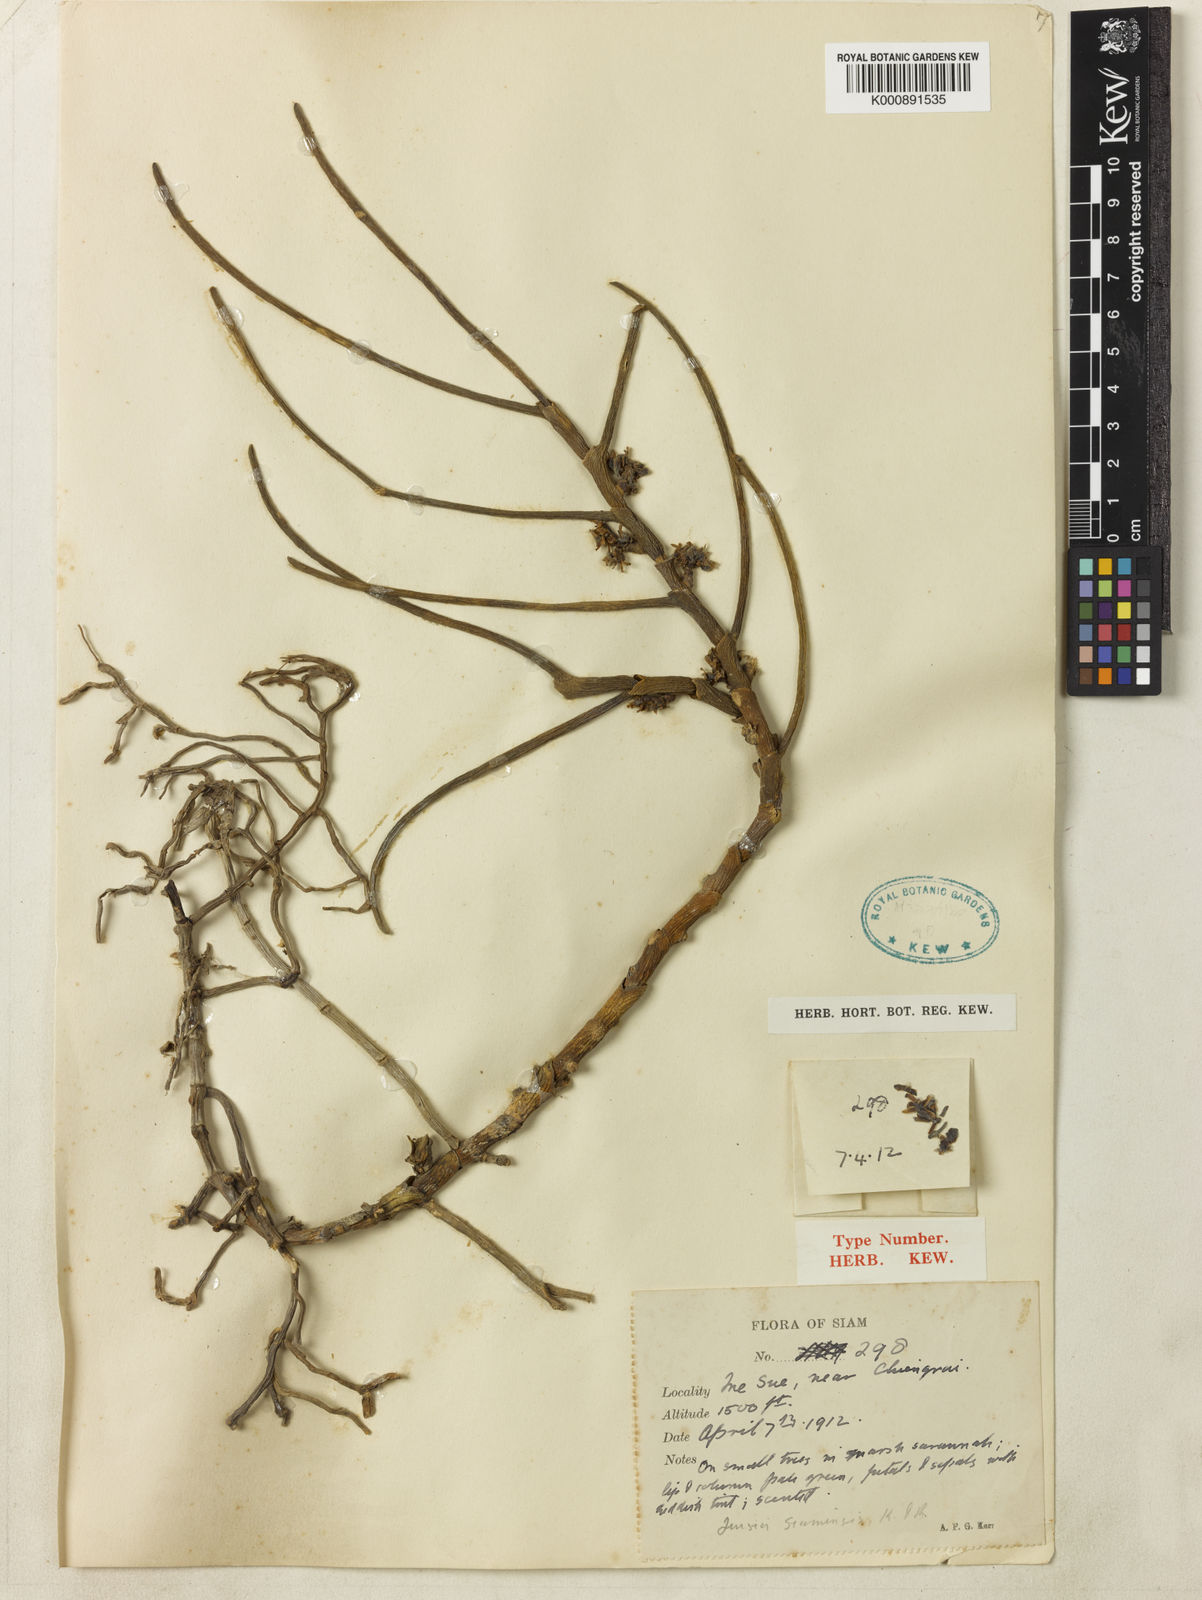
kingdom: Plantae
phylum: Tracheophyta
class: Liliopsida
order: Asparagales
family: Orchidaceae
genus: Luisia
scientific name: Luisia brachystachys
